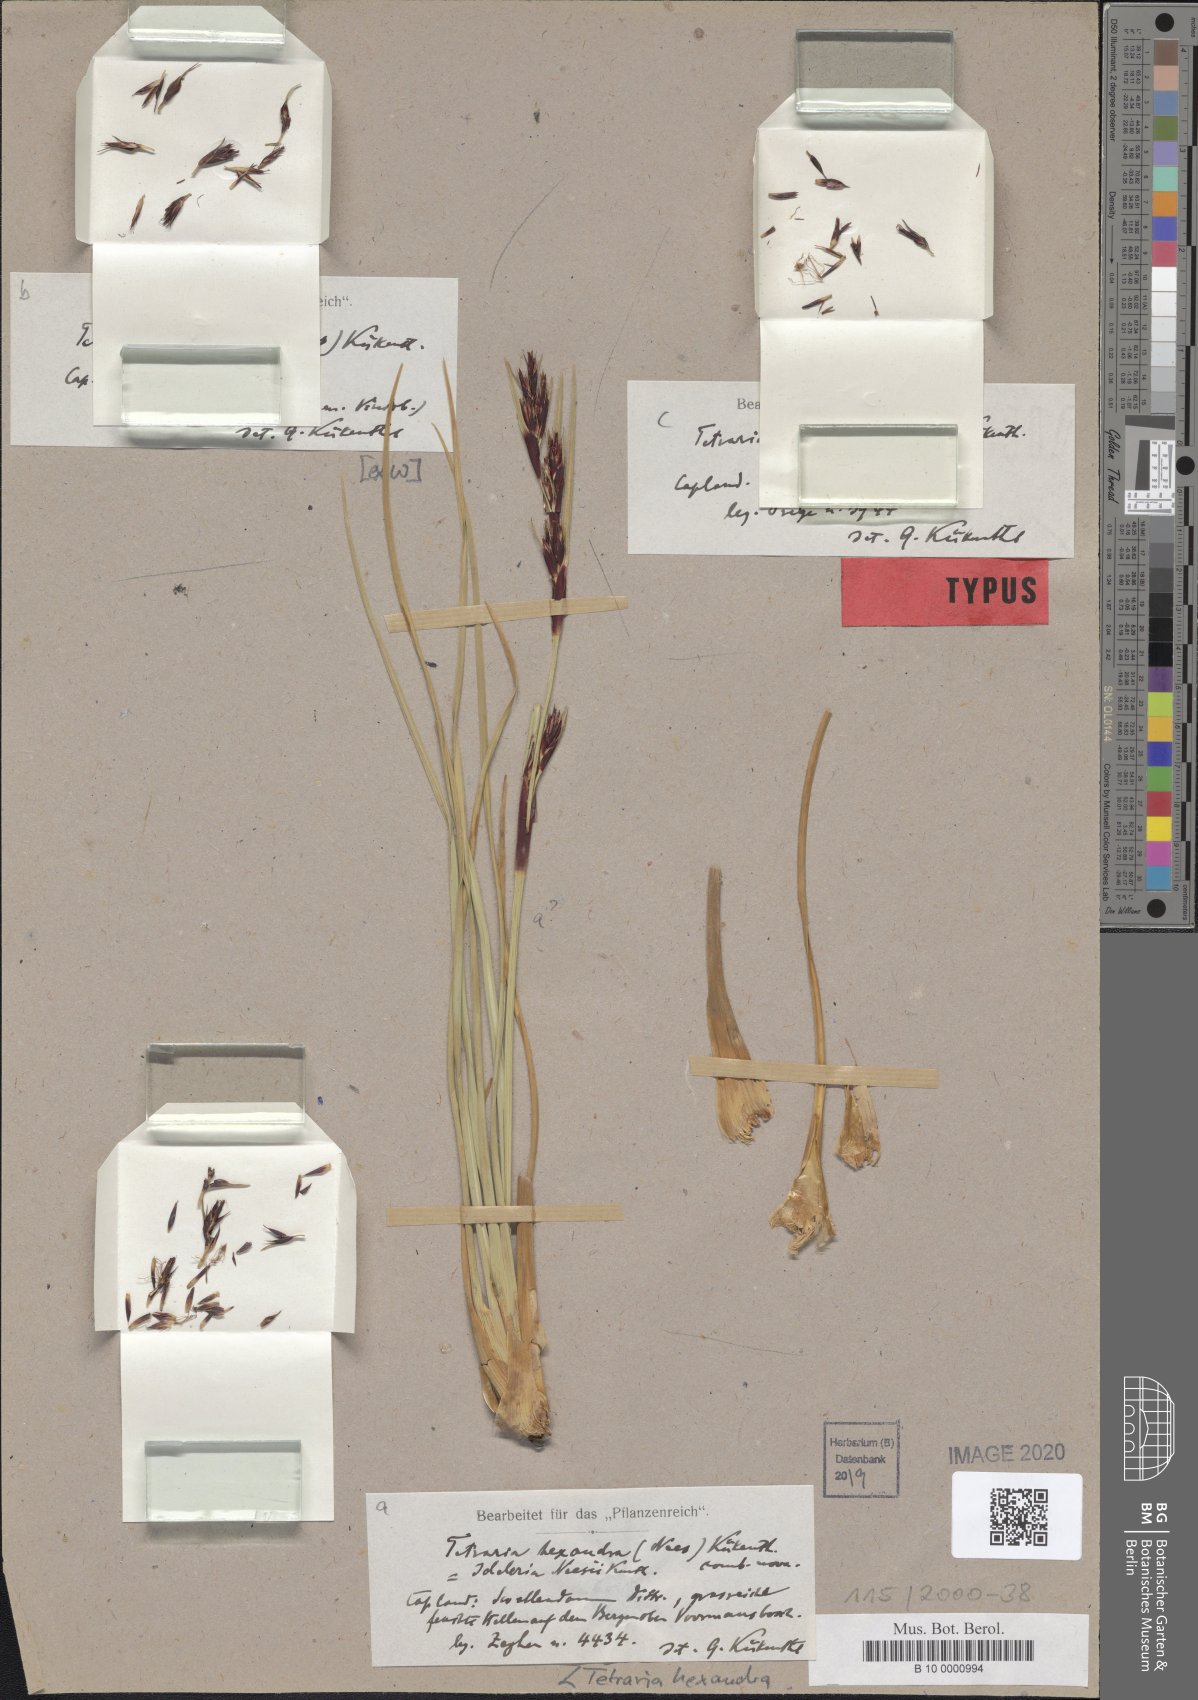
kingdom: Plantae
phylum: Tracheophyta
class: Liliopsida
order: Poales
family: Cyperaceae
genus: Cyathocoma
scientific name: Cyathocoma hexandra
